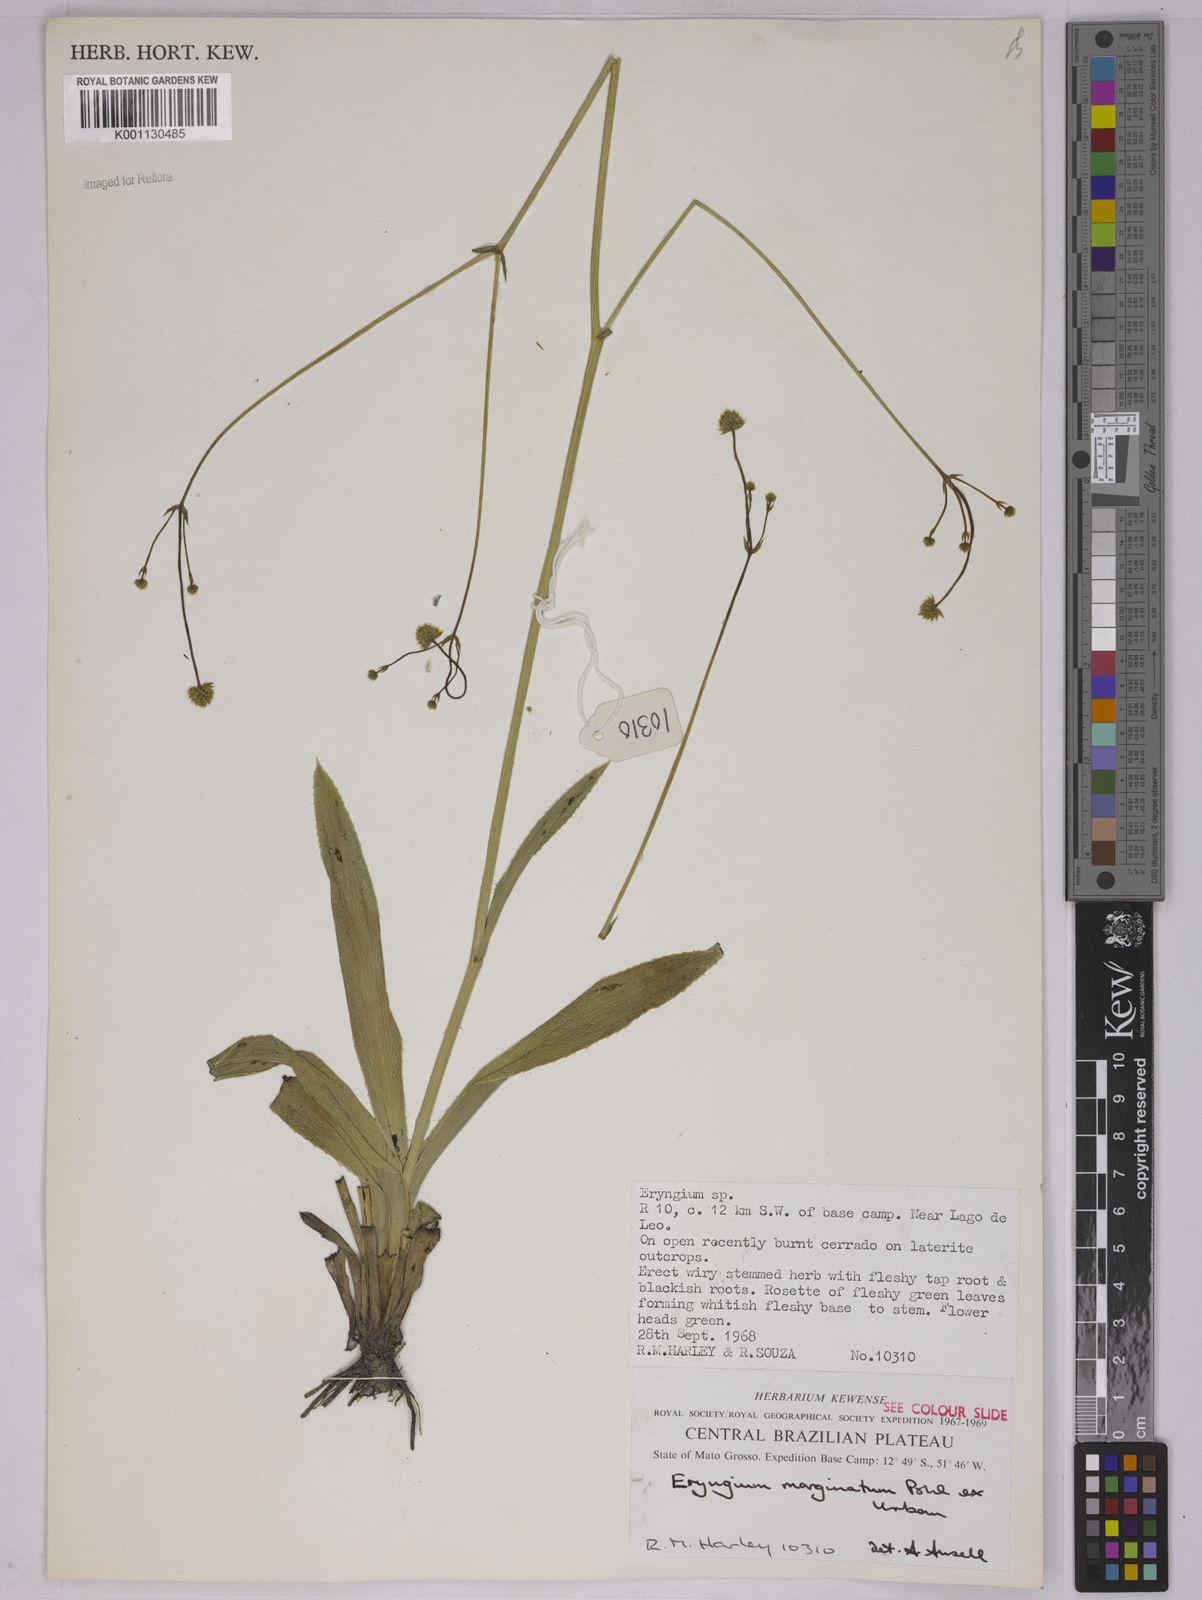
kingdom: Plantae
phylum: Tracheophyta
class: Magnoliopsida
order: Apiales
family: Apiaceae
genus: Eryngium
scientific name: Eryngium marginatum
